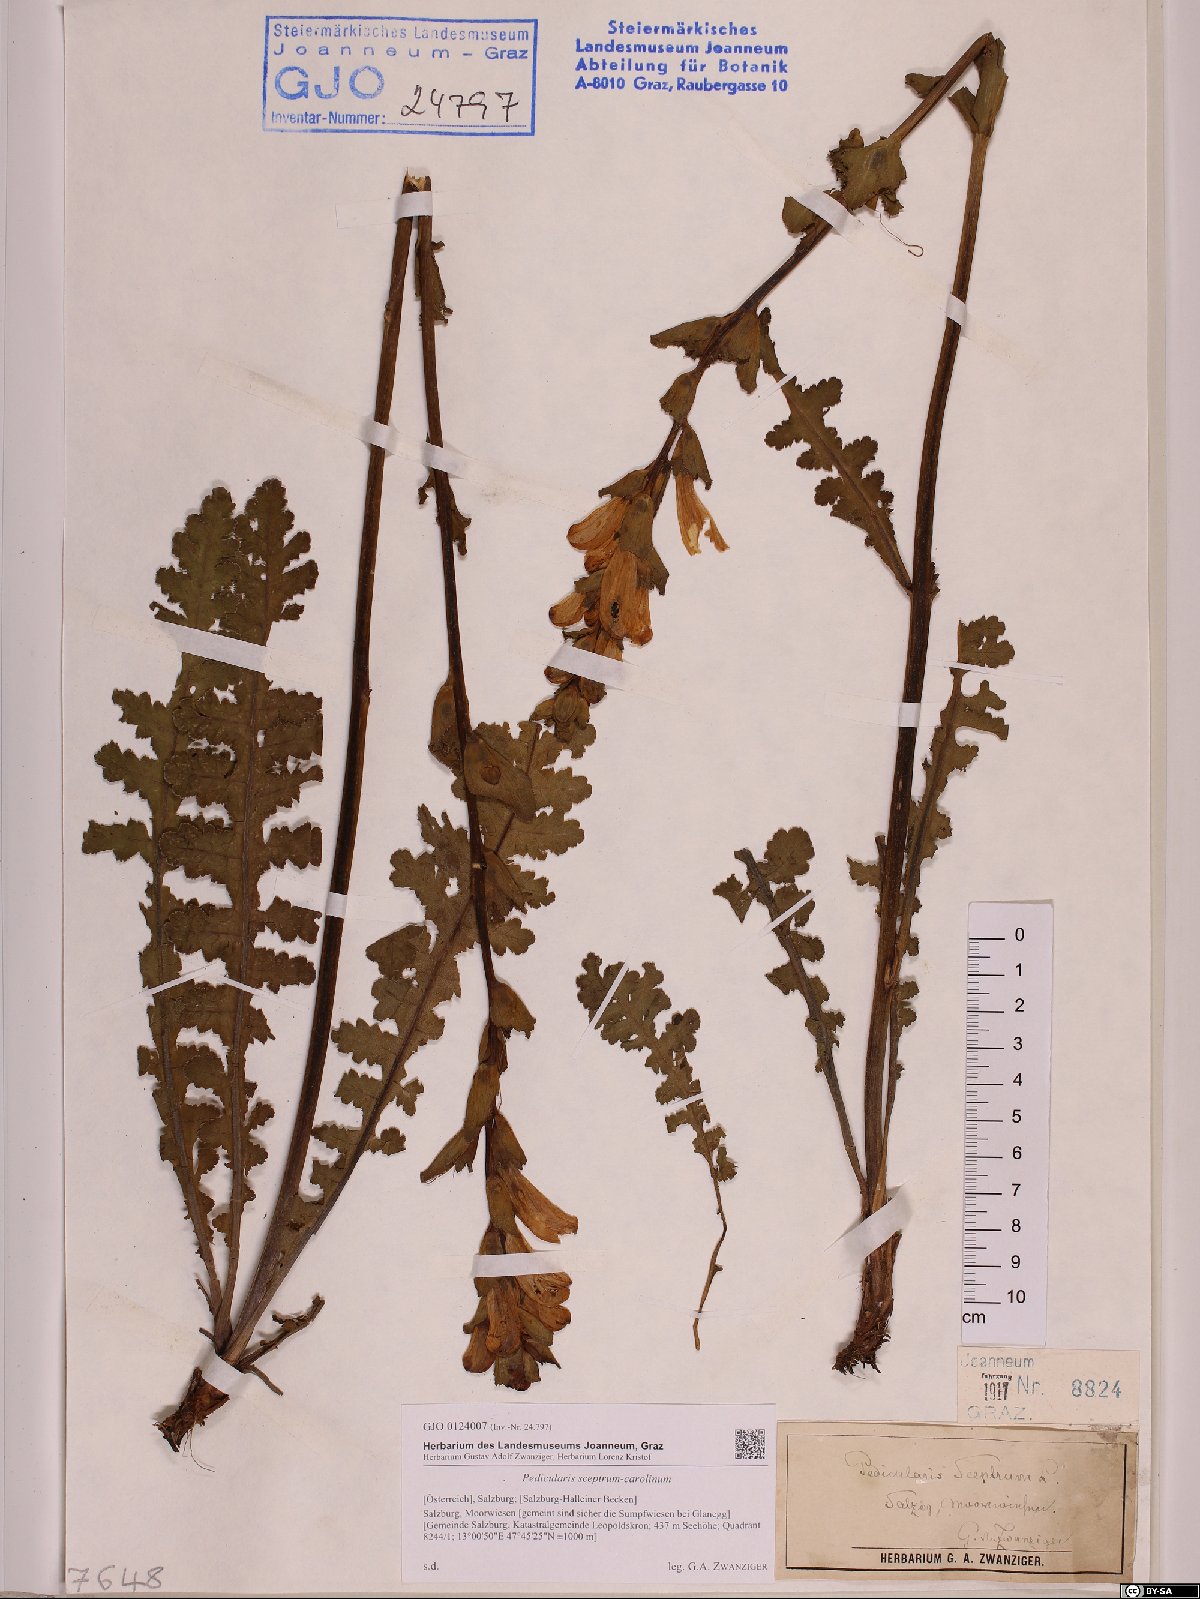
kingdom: Plantae
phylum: Tracheophyta
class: Magnoliopsida
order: Lamiales
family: Orobanchaceae
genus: Pedicularis
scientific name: Pedicularis sceptrum-carolinum
